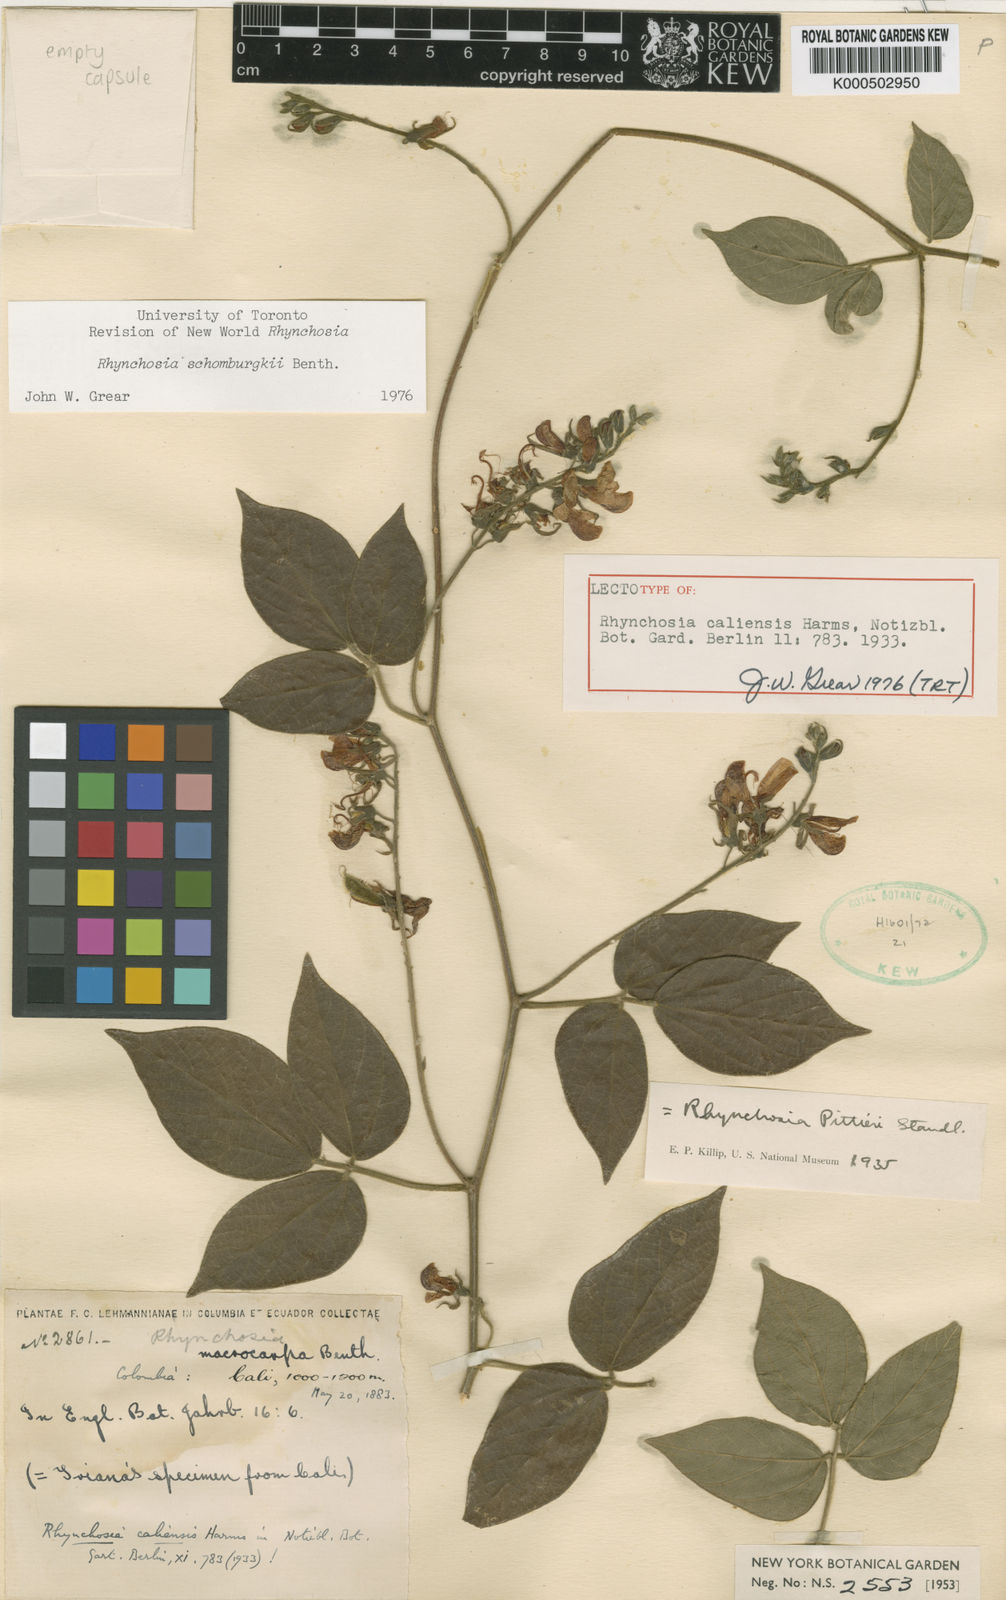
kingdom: Plantae
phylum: Tracheophyta
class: Magnoliopsida
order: Fabales
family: Fabaceae
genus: Rhynchosia
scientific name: Rhynchosia schomburgkii
